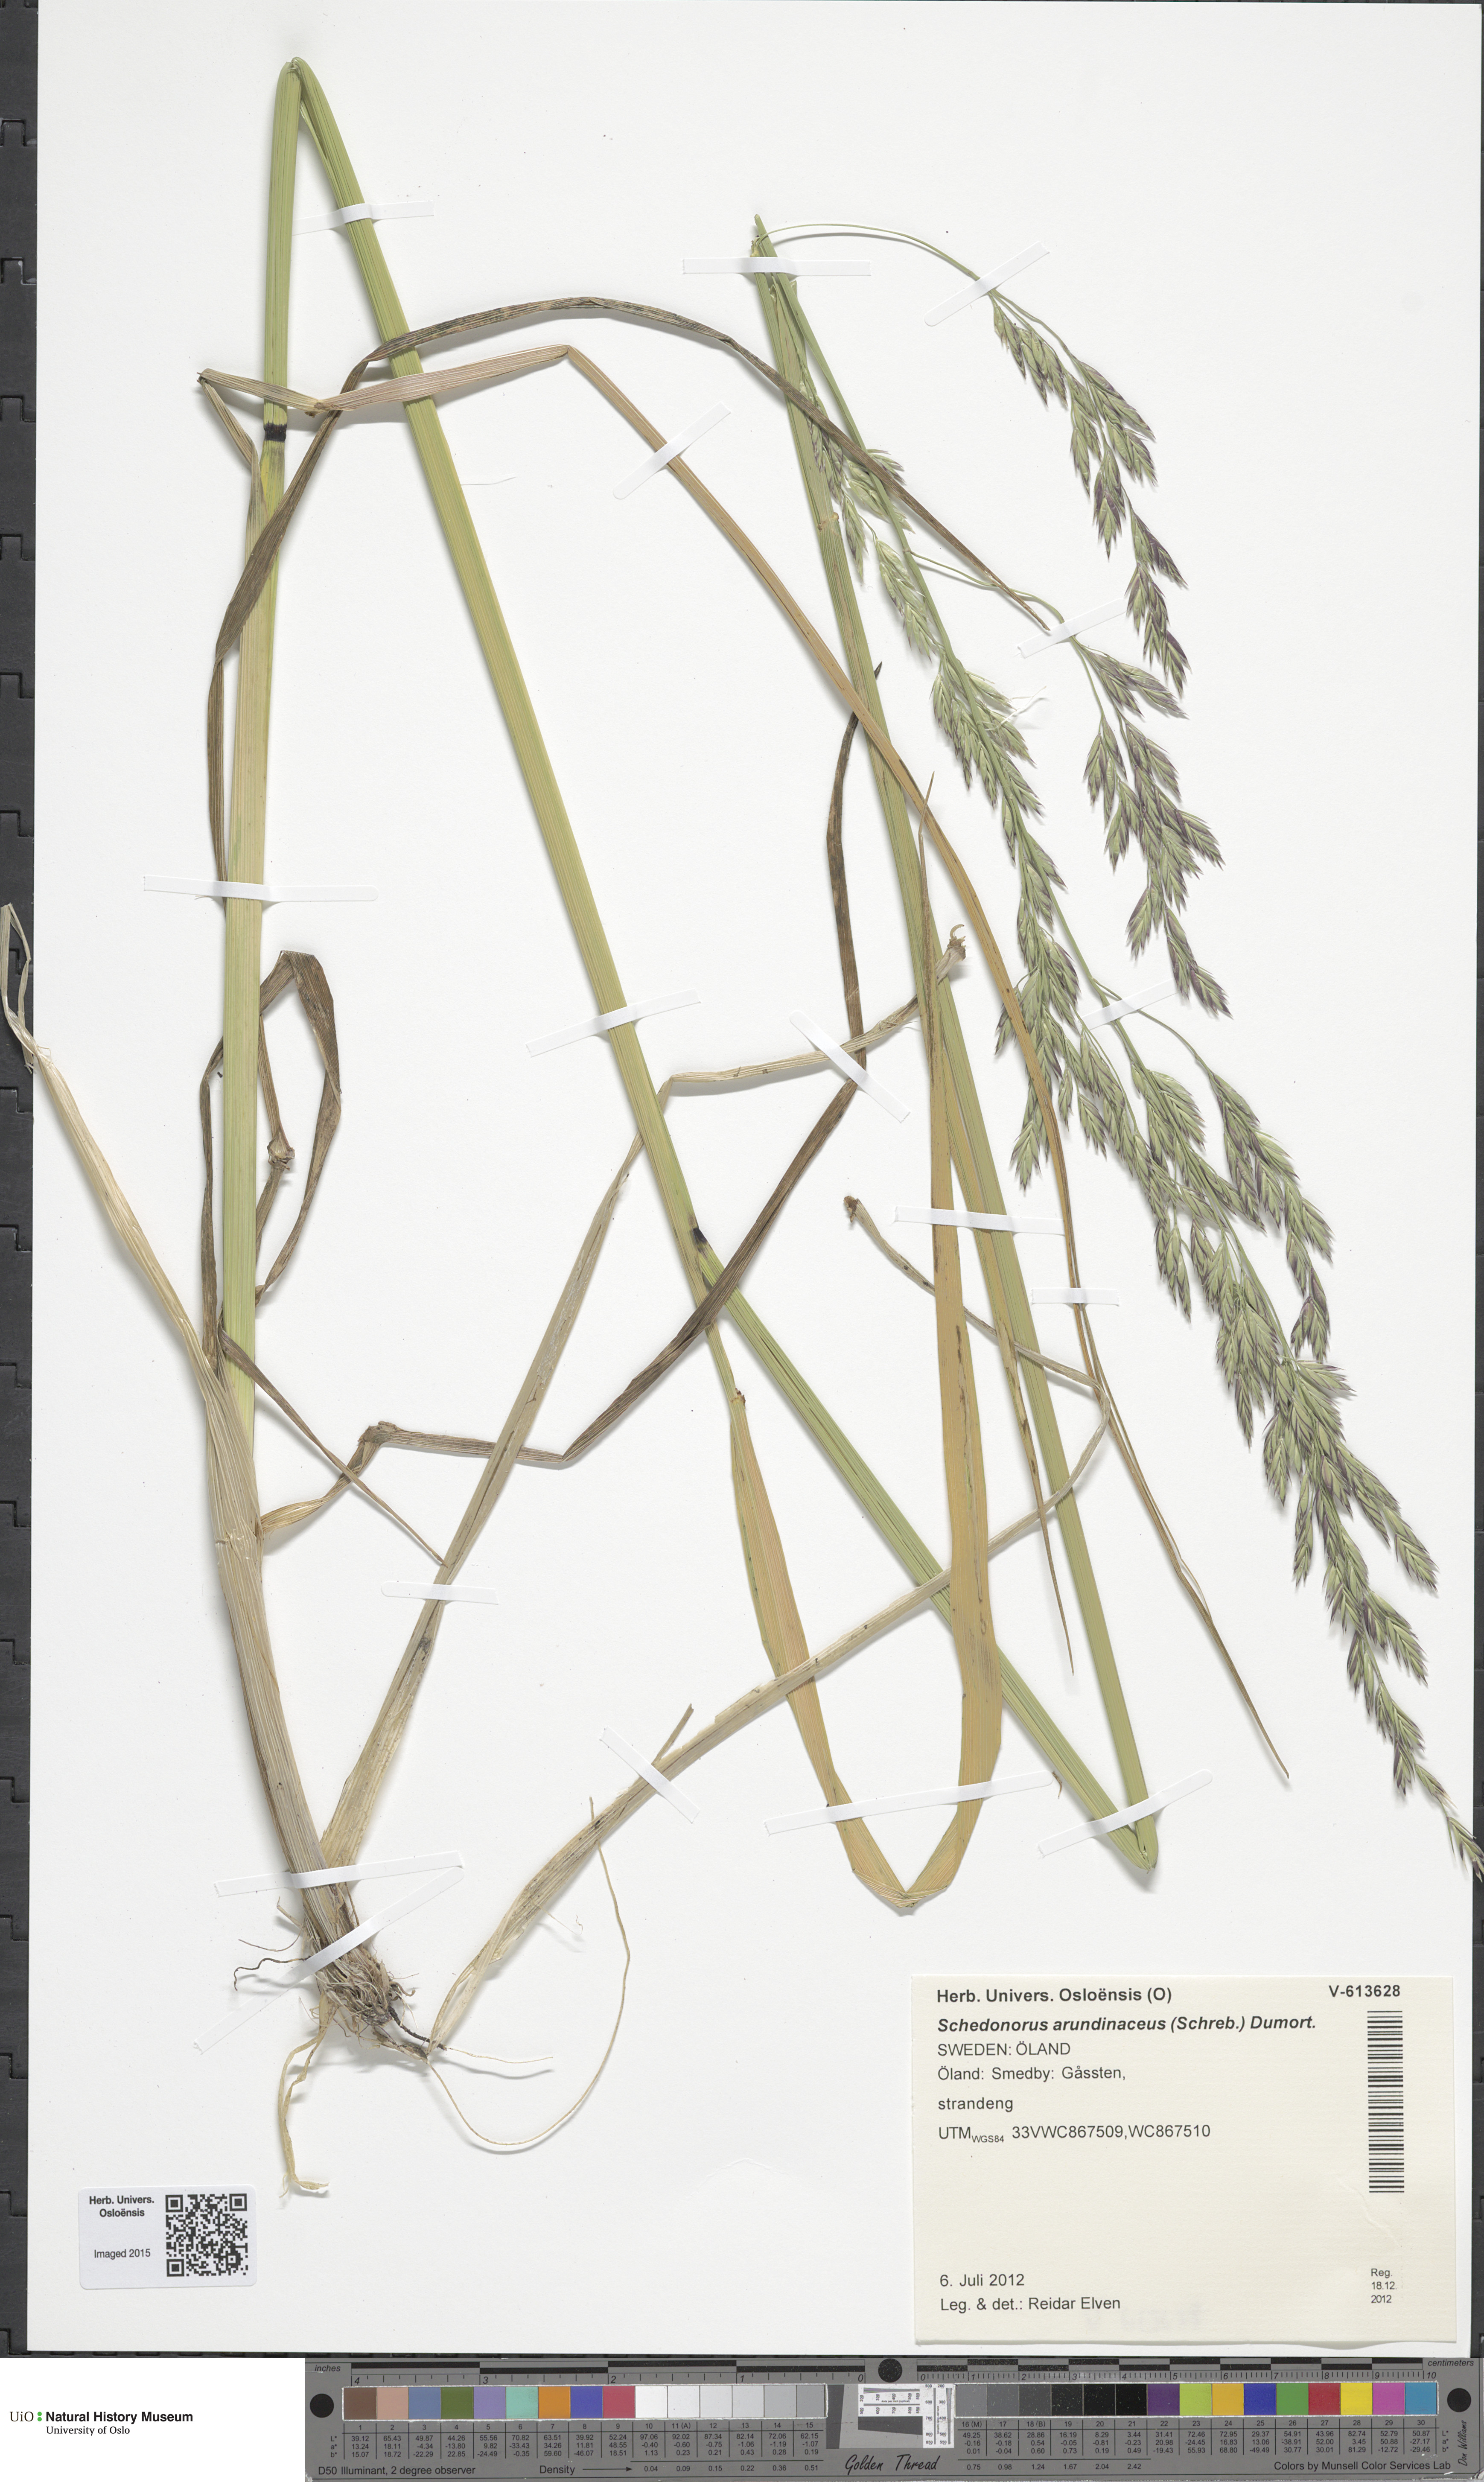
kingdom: Plantae
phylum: Tracheophyta
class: Liliopsida
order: Poales
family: Poaceae
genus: Lolium
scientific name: Lolium arundinaceum
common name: Reed fescue
